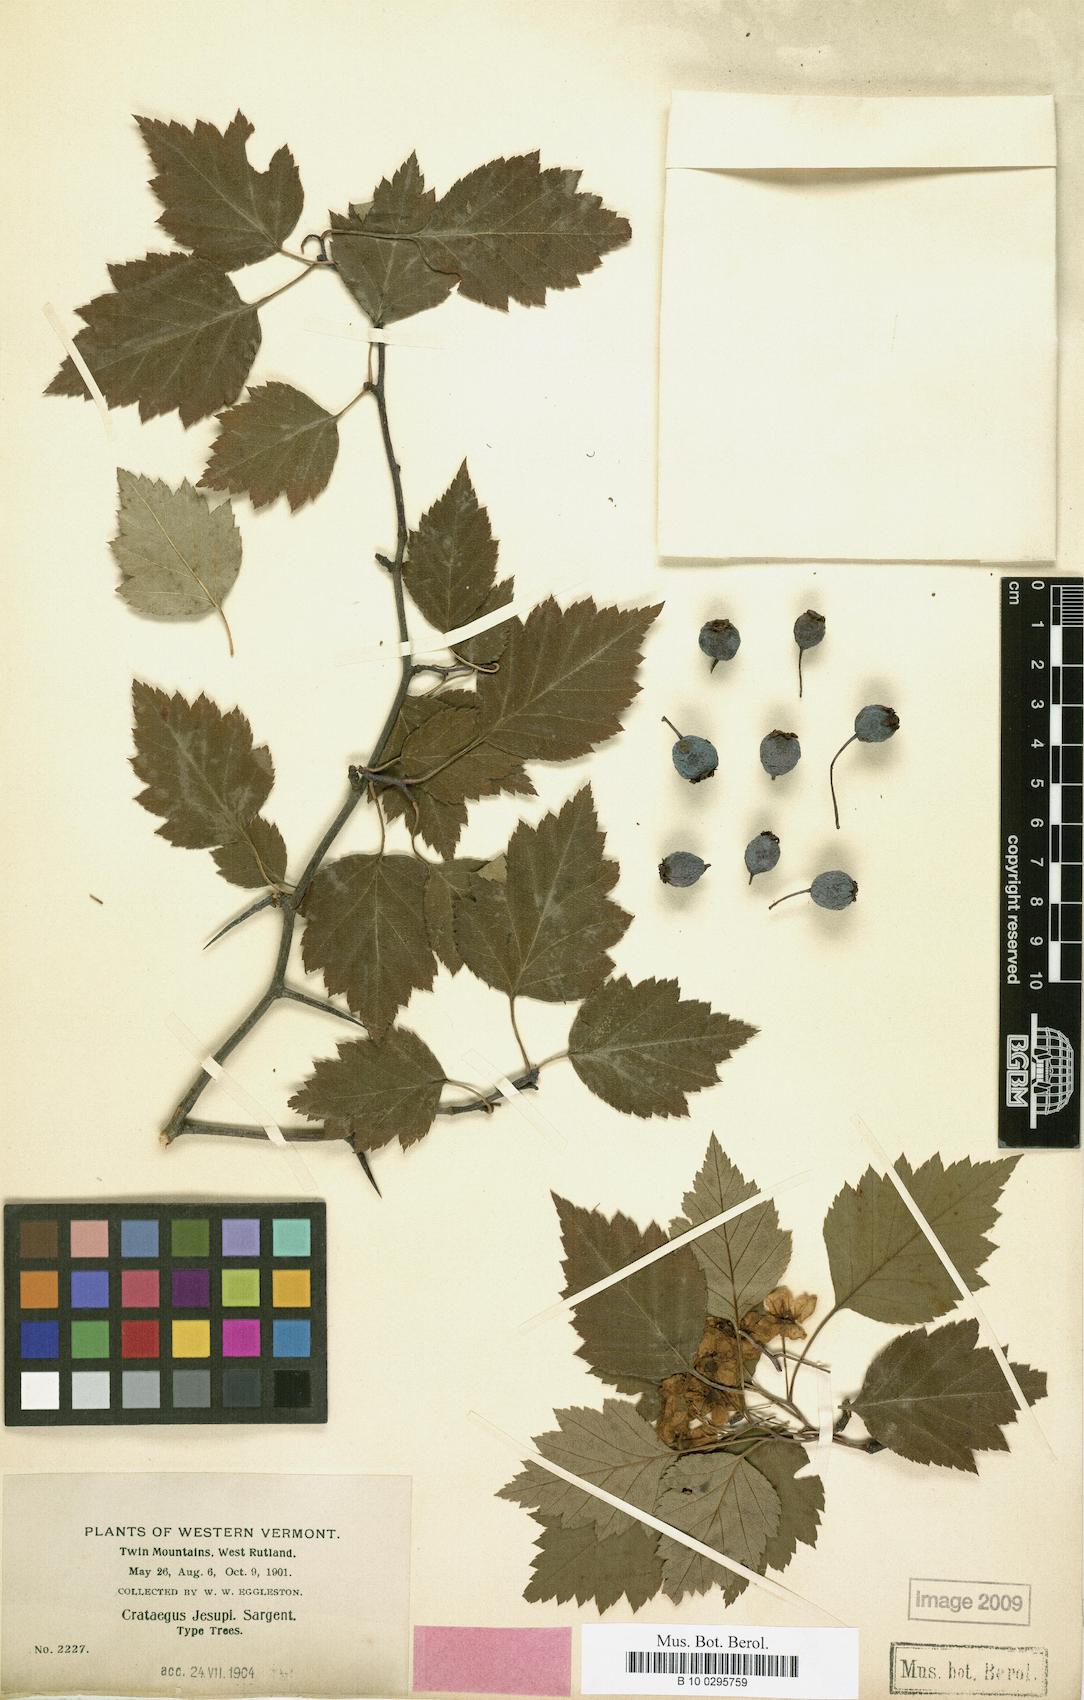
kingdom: Plantae
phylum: Tracheophyta
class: Magnoliopsida
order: Rosales
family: Rosaceae
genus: Crataegus
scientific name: Crataegus jesupii
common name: Jesup's hawthorn
